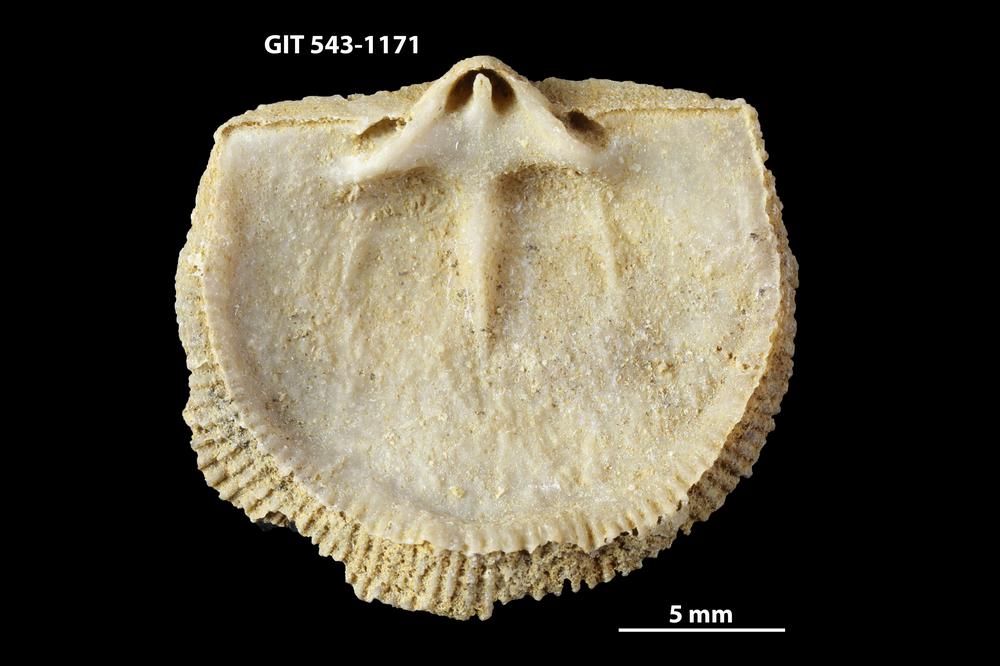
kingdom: Animalia
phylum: Brachiopoda
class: Rhynchonellata
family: Clitambonitidae
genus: Clitambonites
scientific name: Clitambonites Orthisina schmidti
